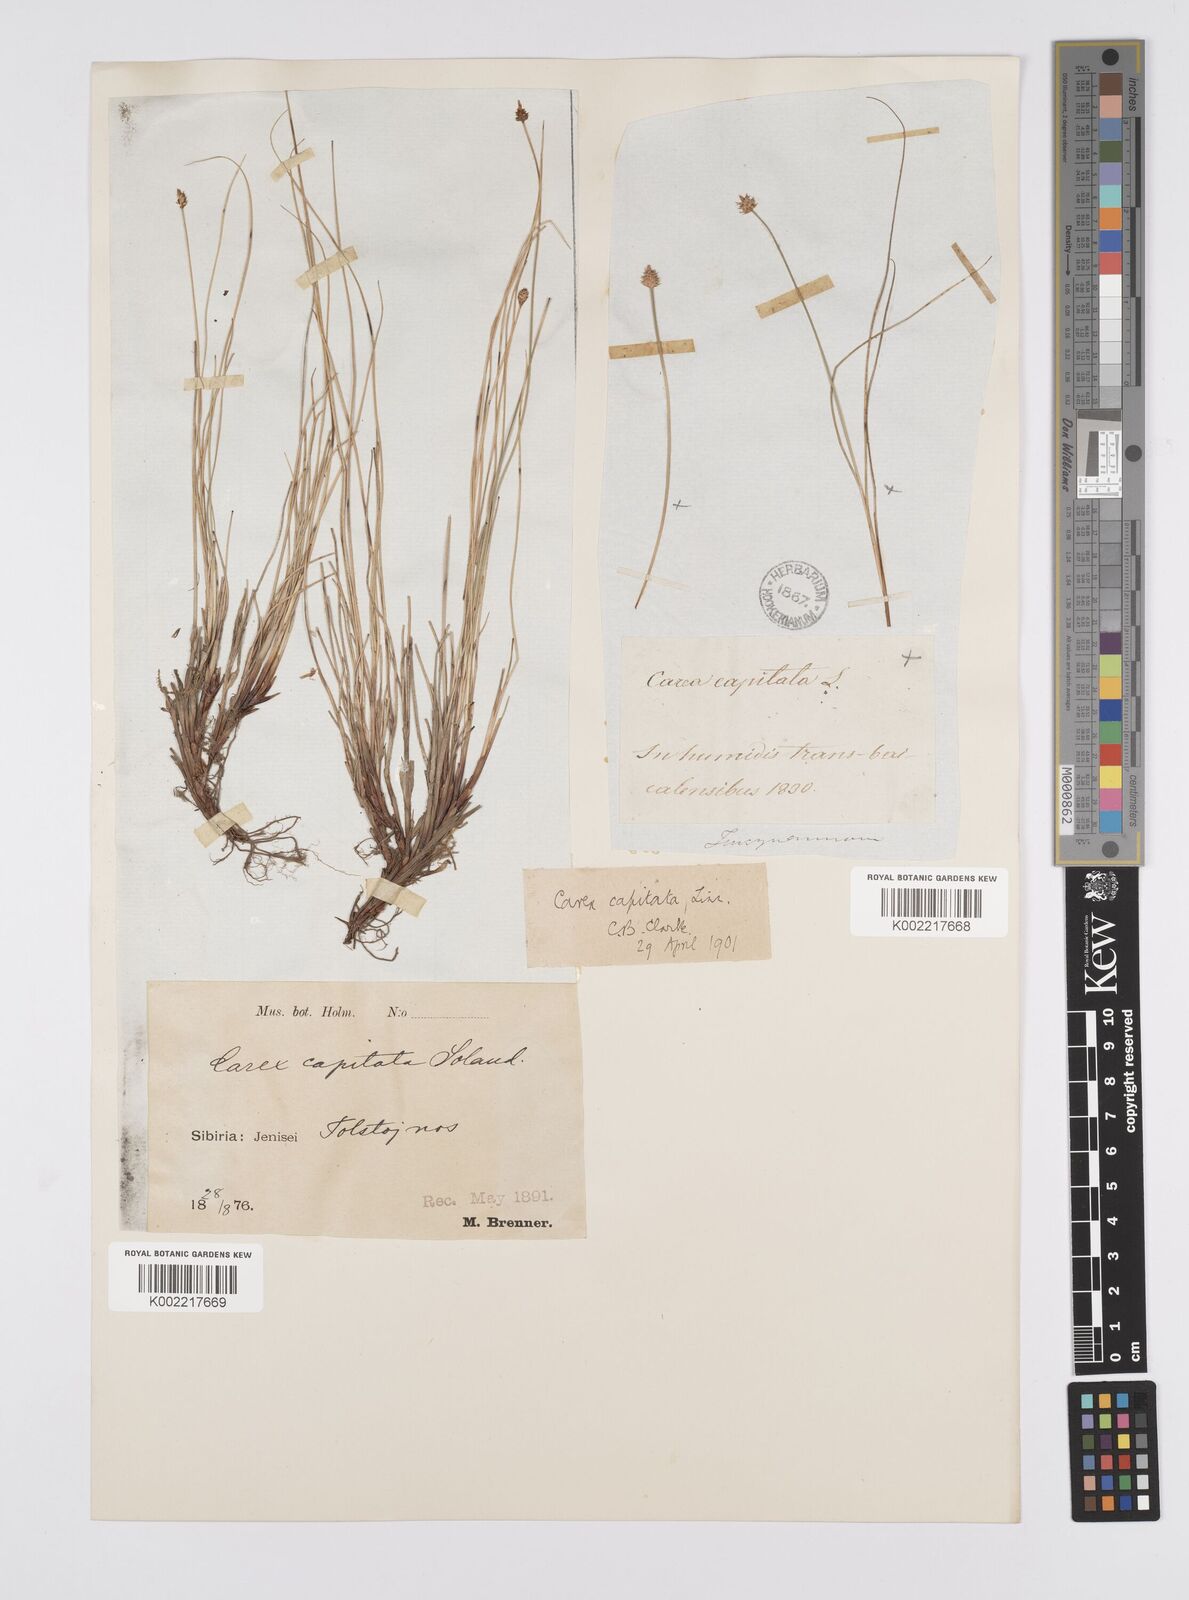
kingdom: Plantae
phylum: Tracheophyta
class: Liliopsida
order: Poales
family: Cyperaceae
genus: Carex
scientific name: Carex capitata
